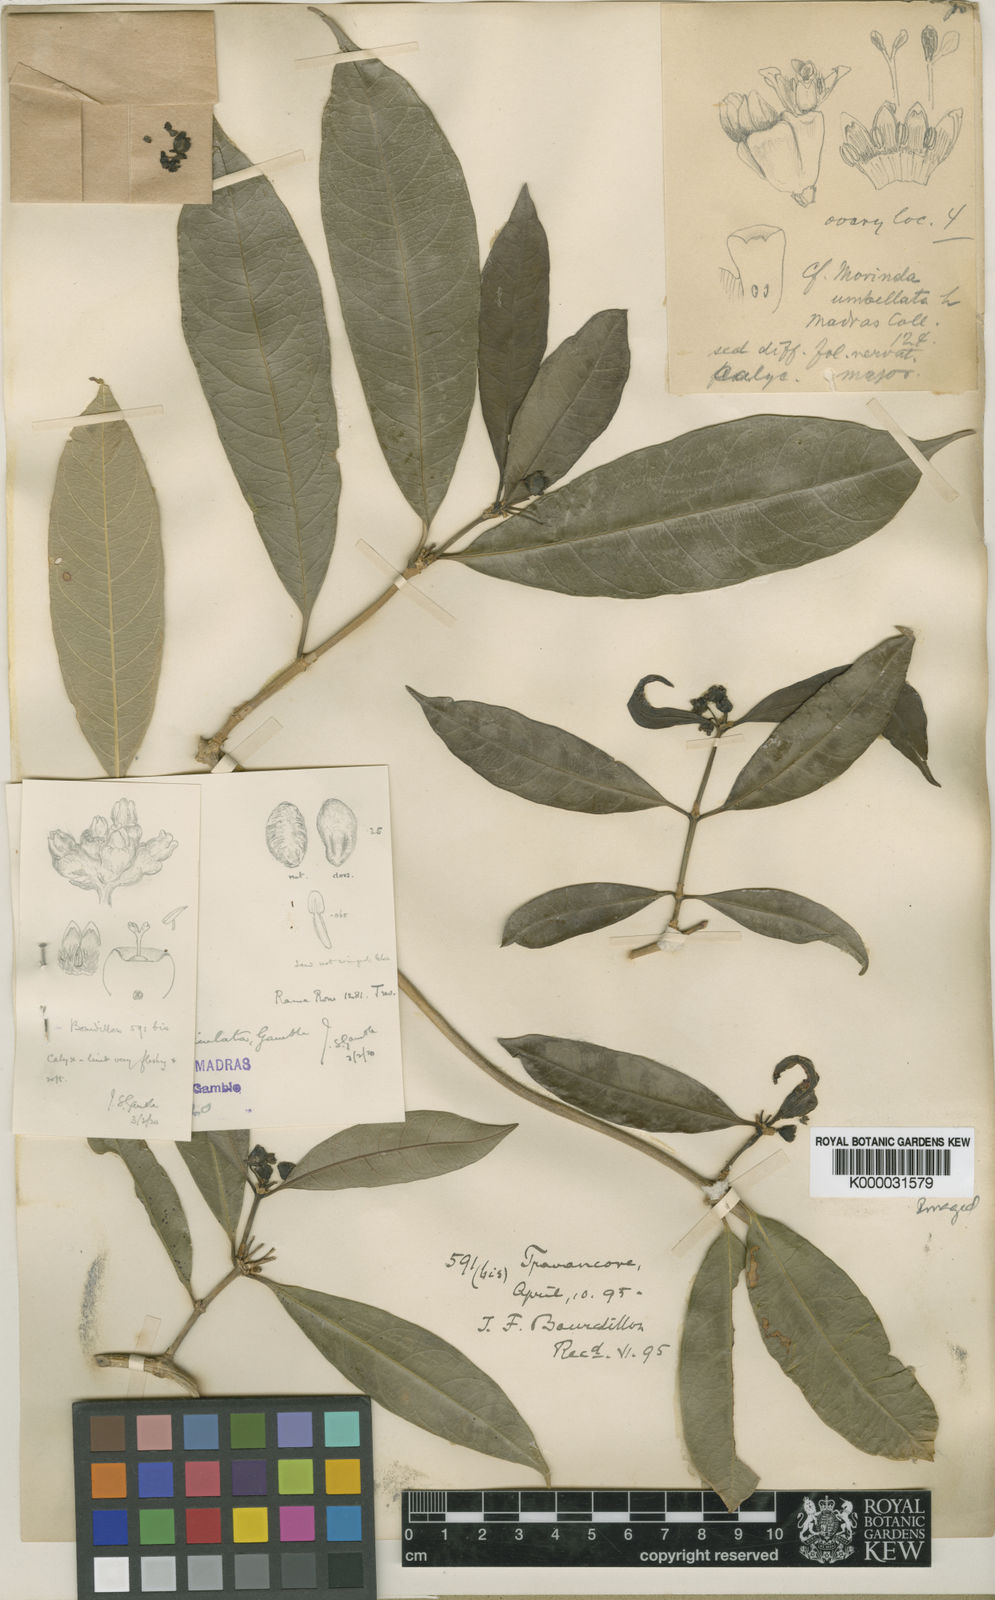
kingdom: Plantae
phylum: Tracheophyta
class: Magnoliopsida
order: Gentianales
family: Rubiaceae
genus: Gynochthodes
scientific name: Gynochthodes ridsdalei
